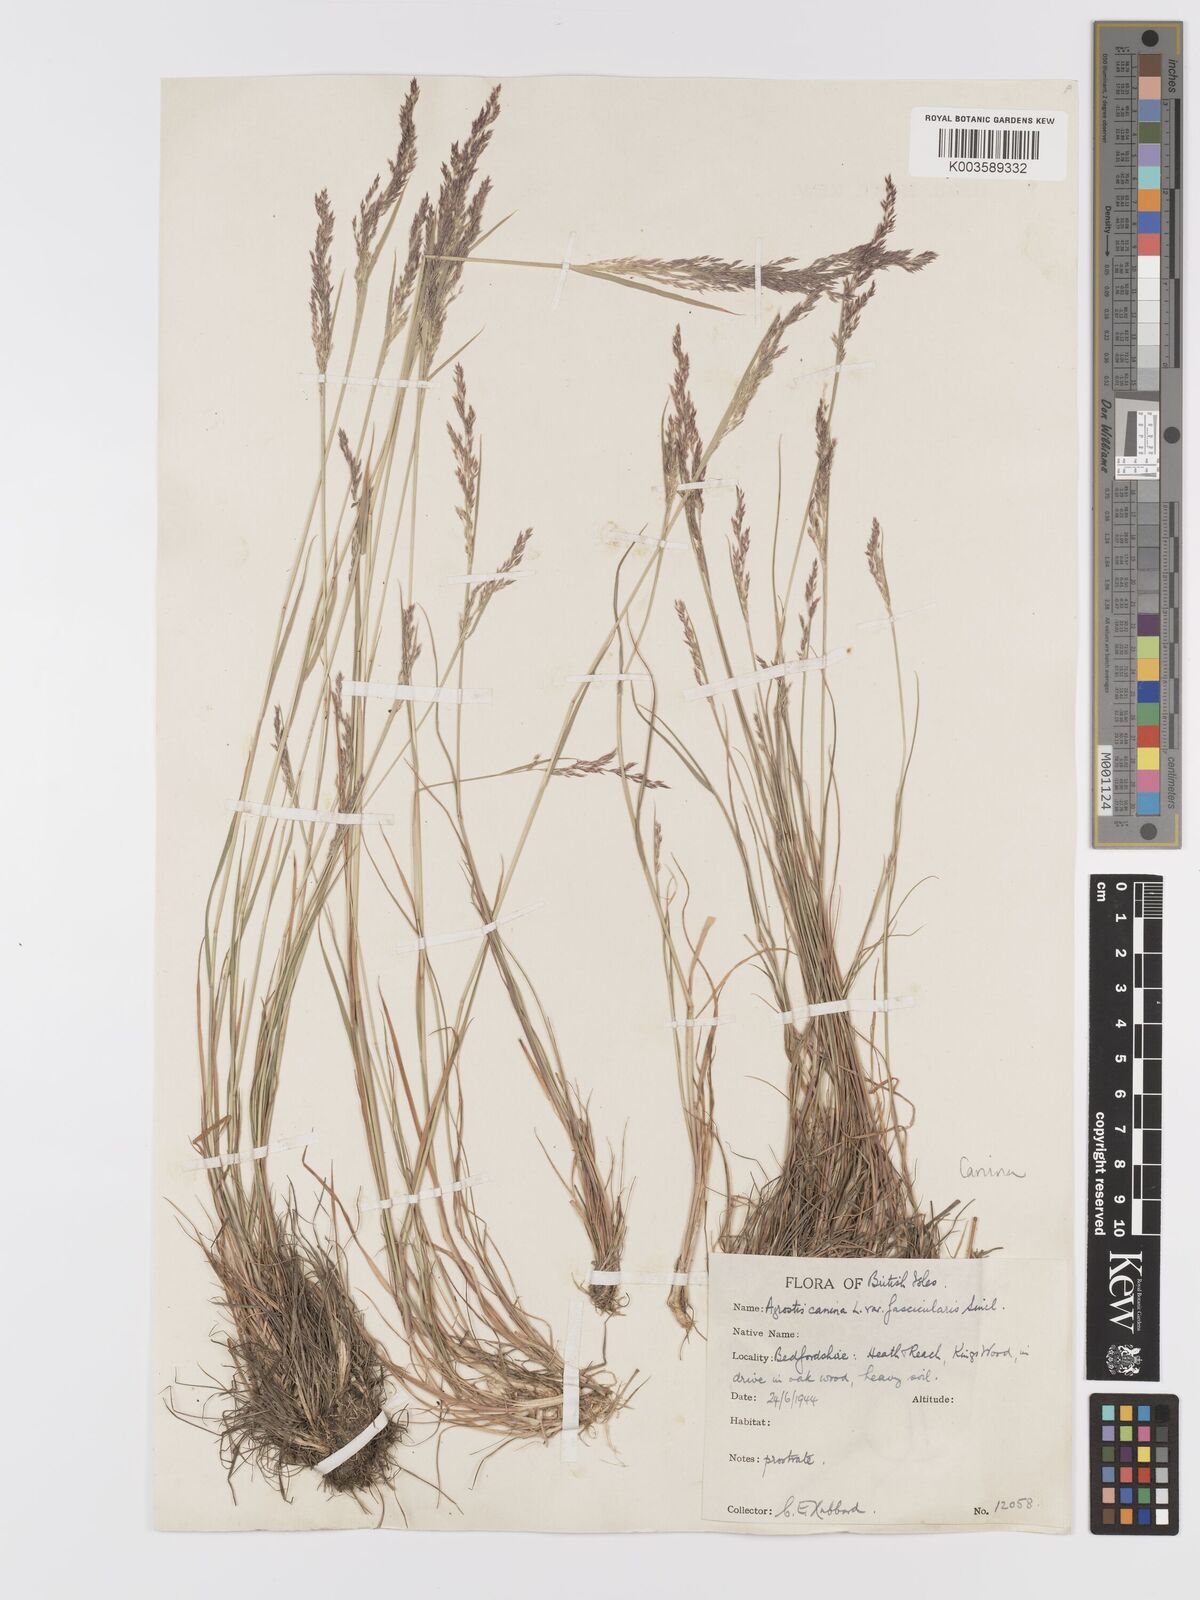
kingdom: Plantae
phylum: Tracheophyta
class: Liliopsida
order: Poales
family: Poaceae
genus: Agrostis
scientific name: Agrostis canina
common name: Velvet bent
